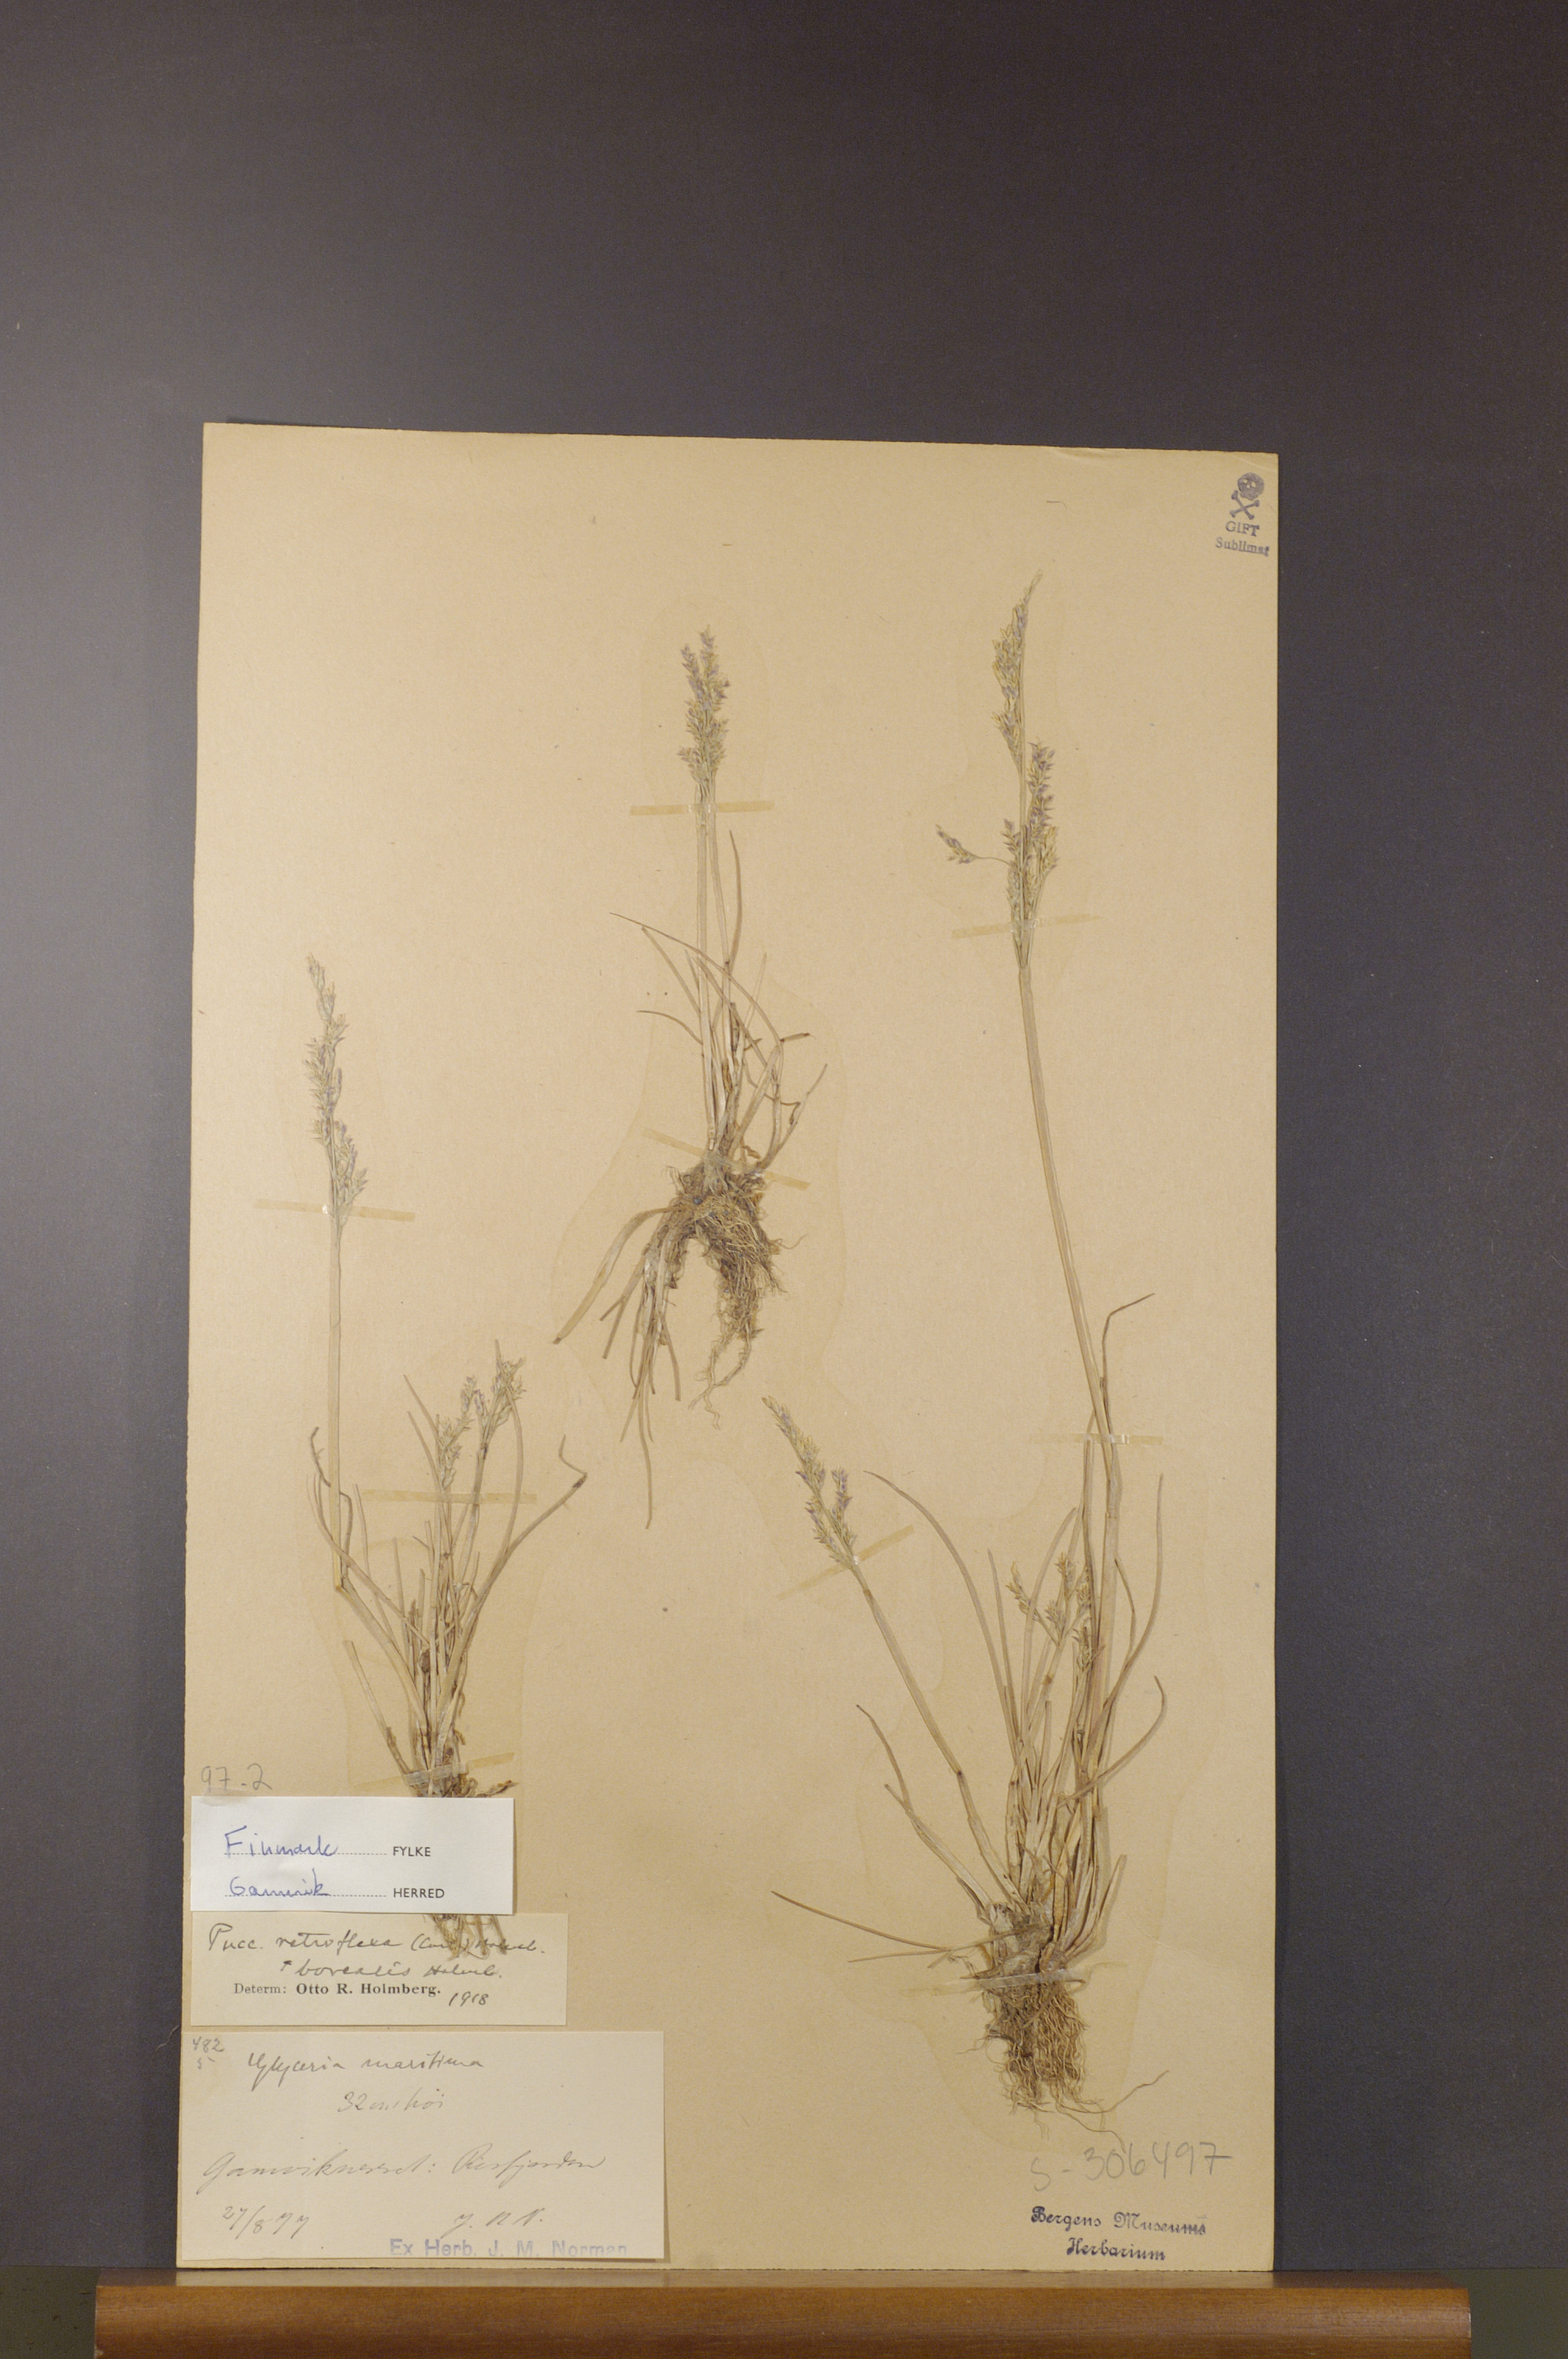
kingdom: Plantae
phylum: Tracheophyta
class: Liliopsida
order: Poales
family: Poaceae
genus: Puccinellia
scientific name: Puccinellia distans
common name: Weeping alkaligrass
